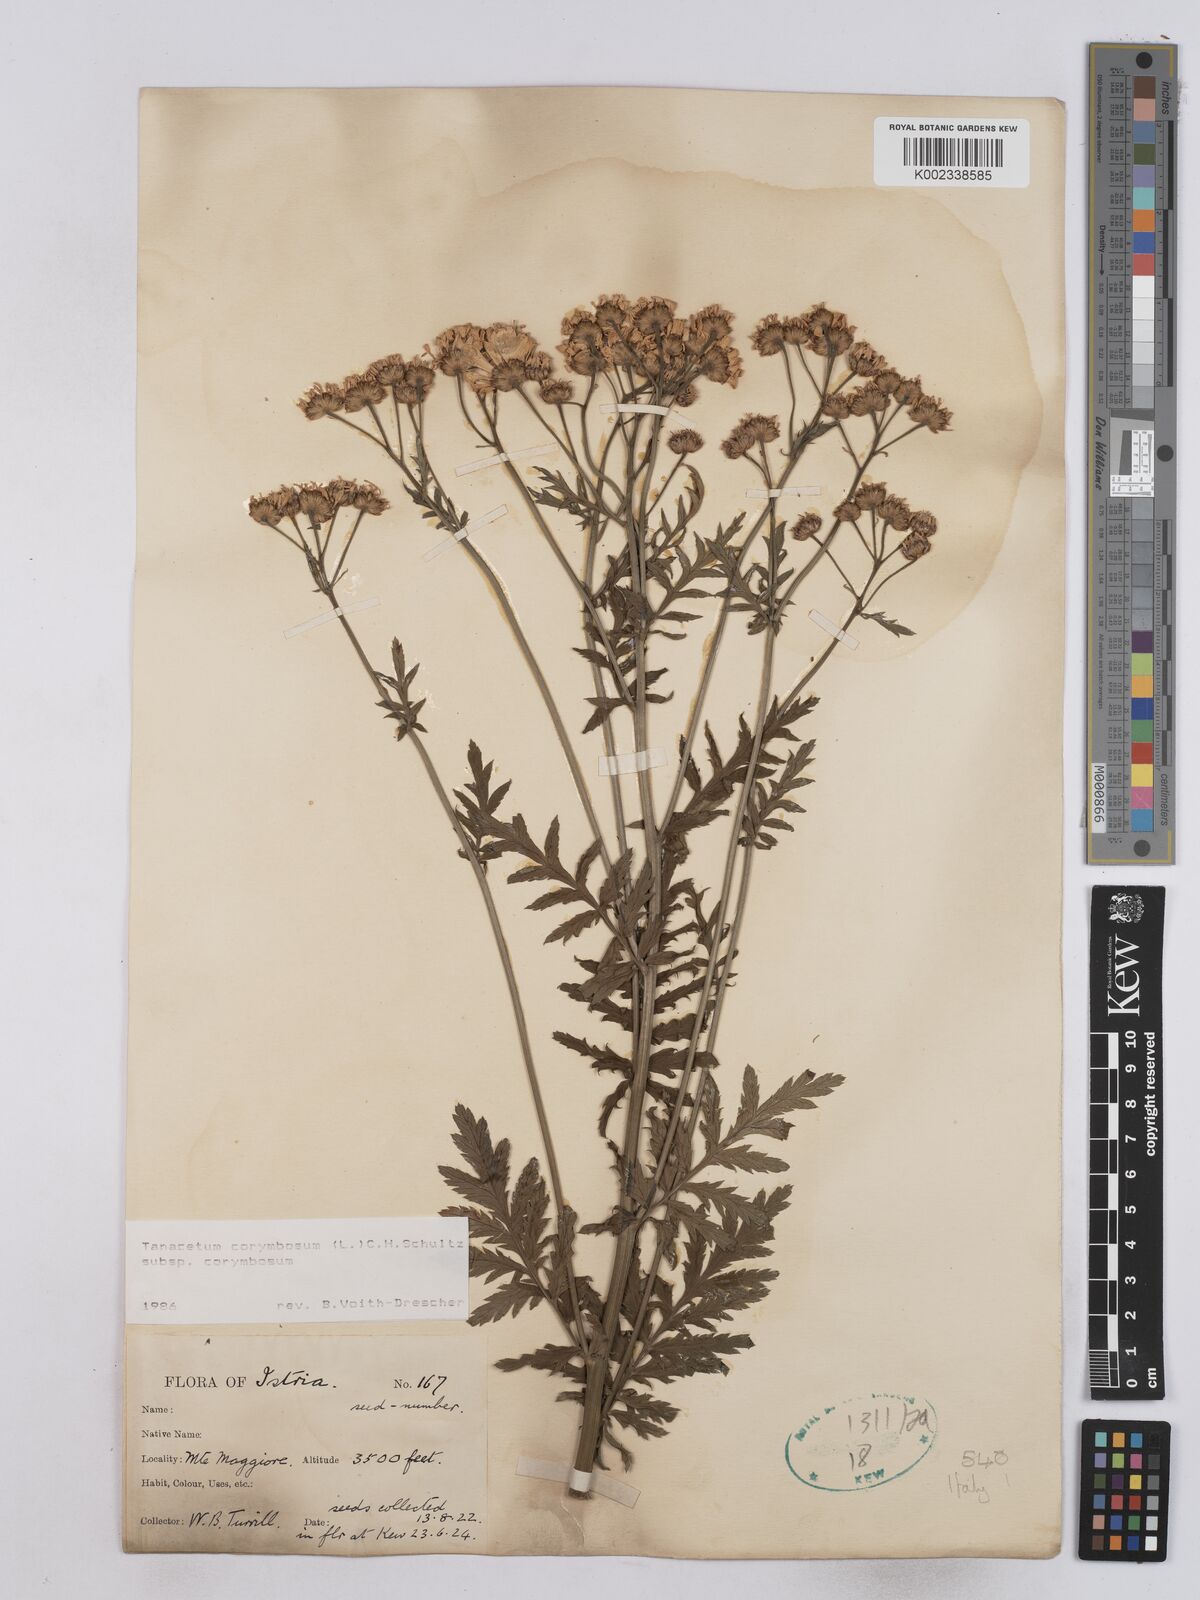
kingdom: Plantae
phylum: Tracheophyta
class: Magnoliopsida
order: Asterales
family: Asteraceae
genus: Tanacetum
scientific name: Tanacetum corymbosum
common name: Scentless feverfew
